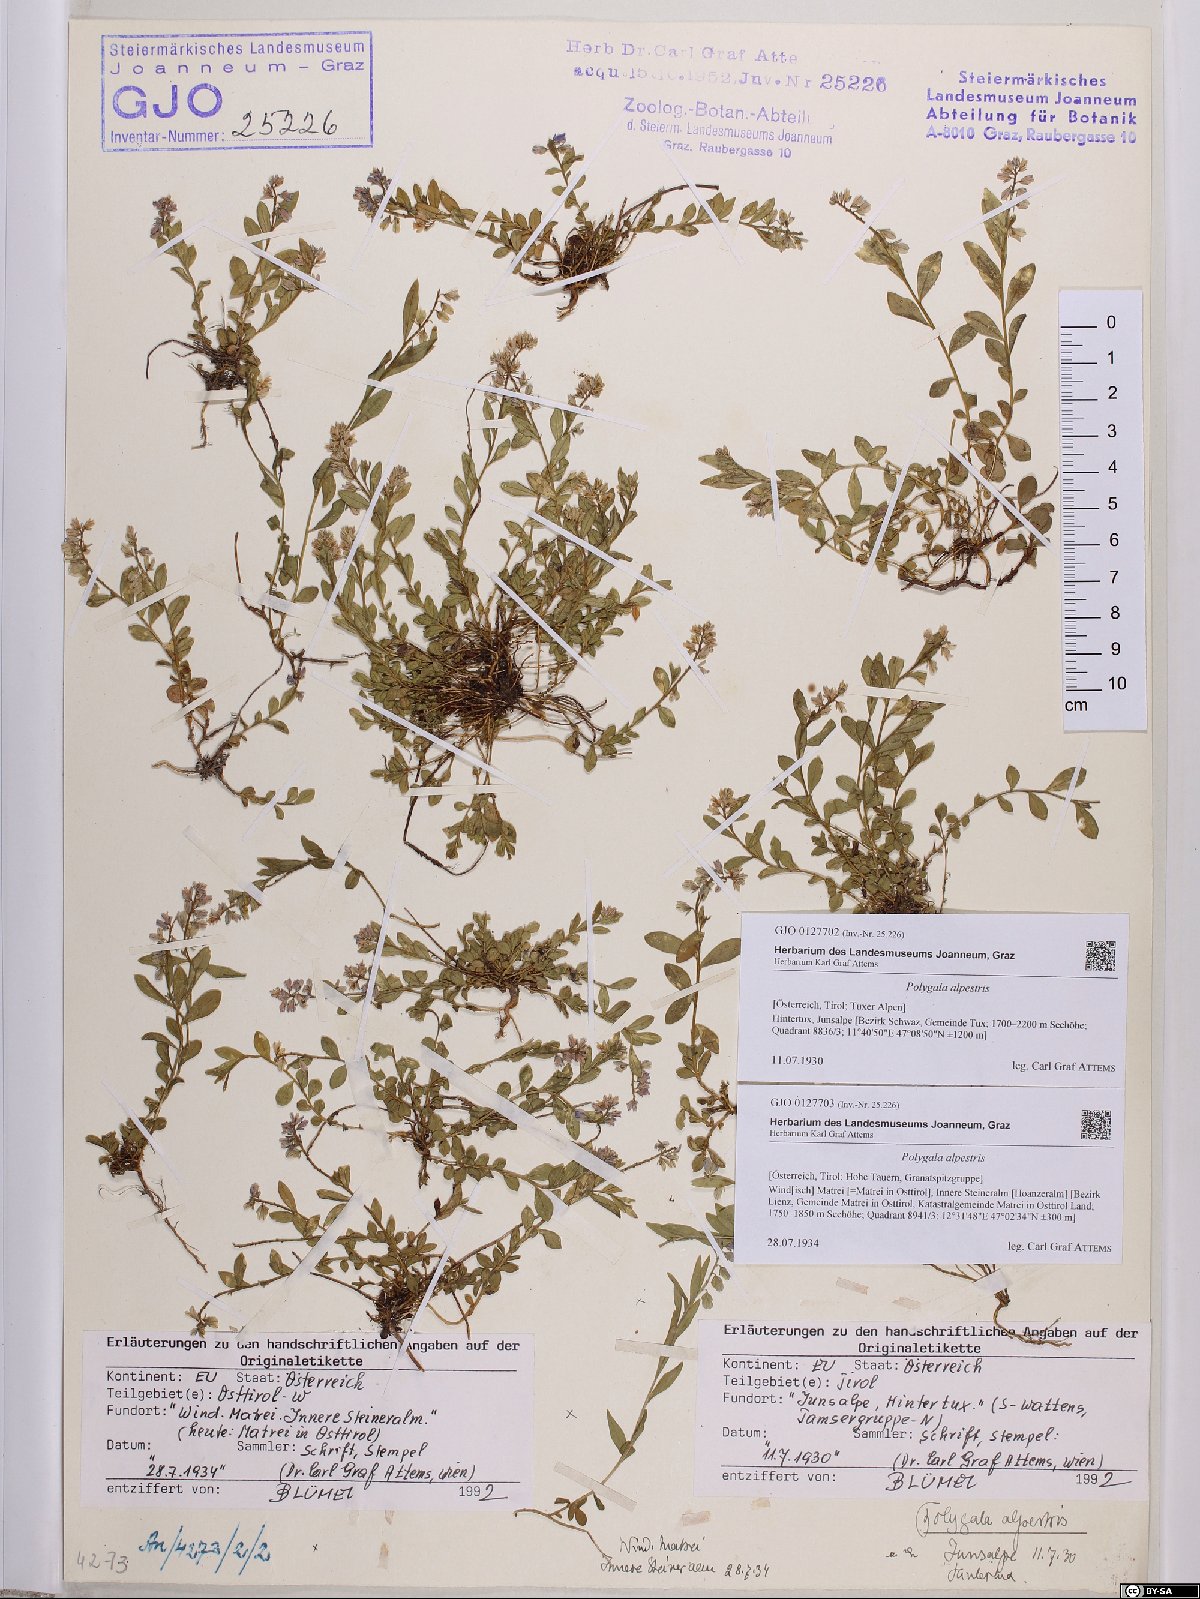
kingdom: Plantae
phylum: Tracheophyta
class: Magnoliopsida
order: Fabales
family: Polygalaceae
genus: Polygala
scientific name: Polygala alpestris
